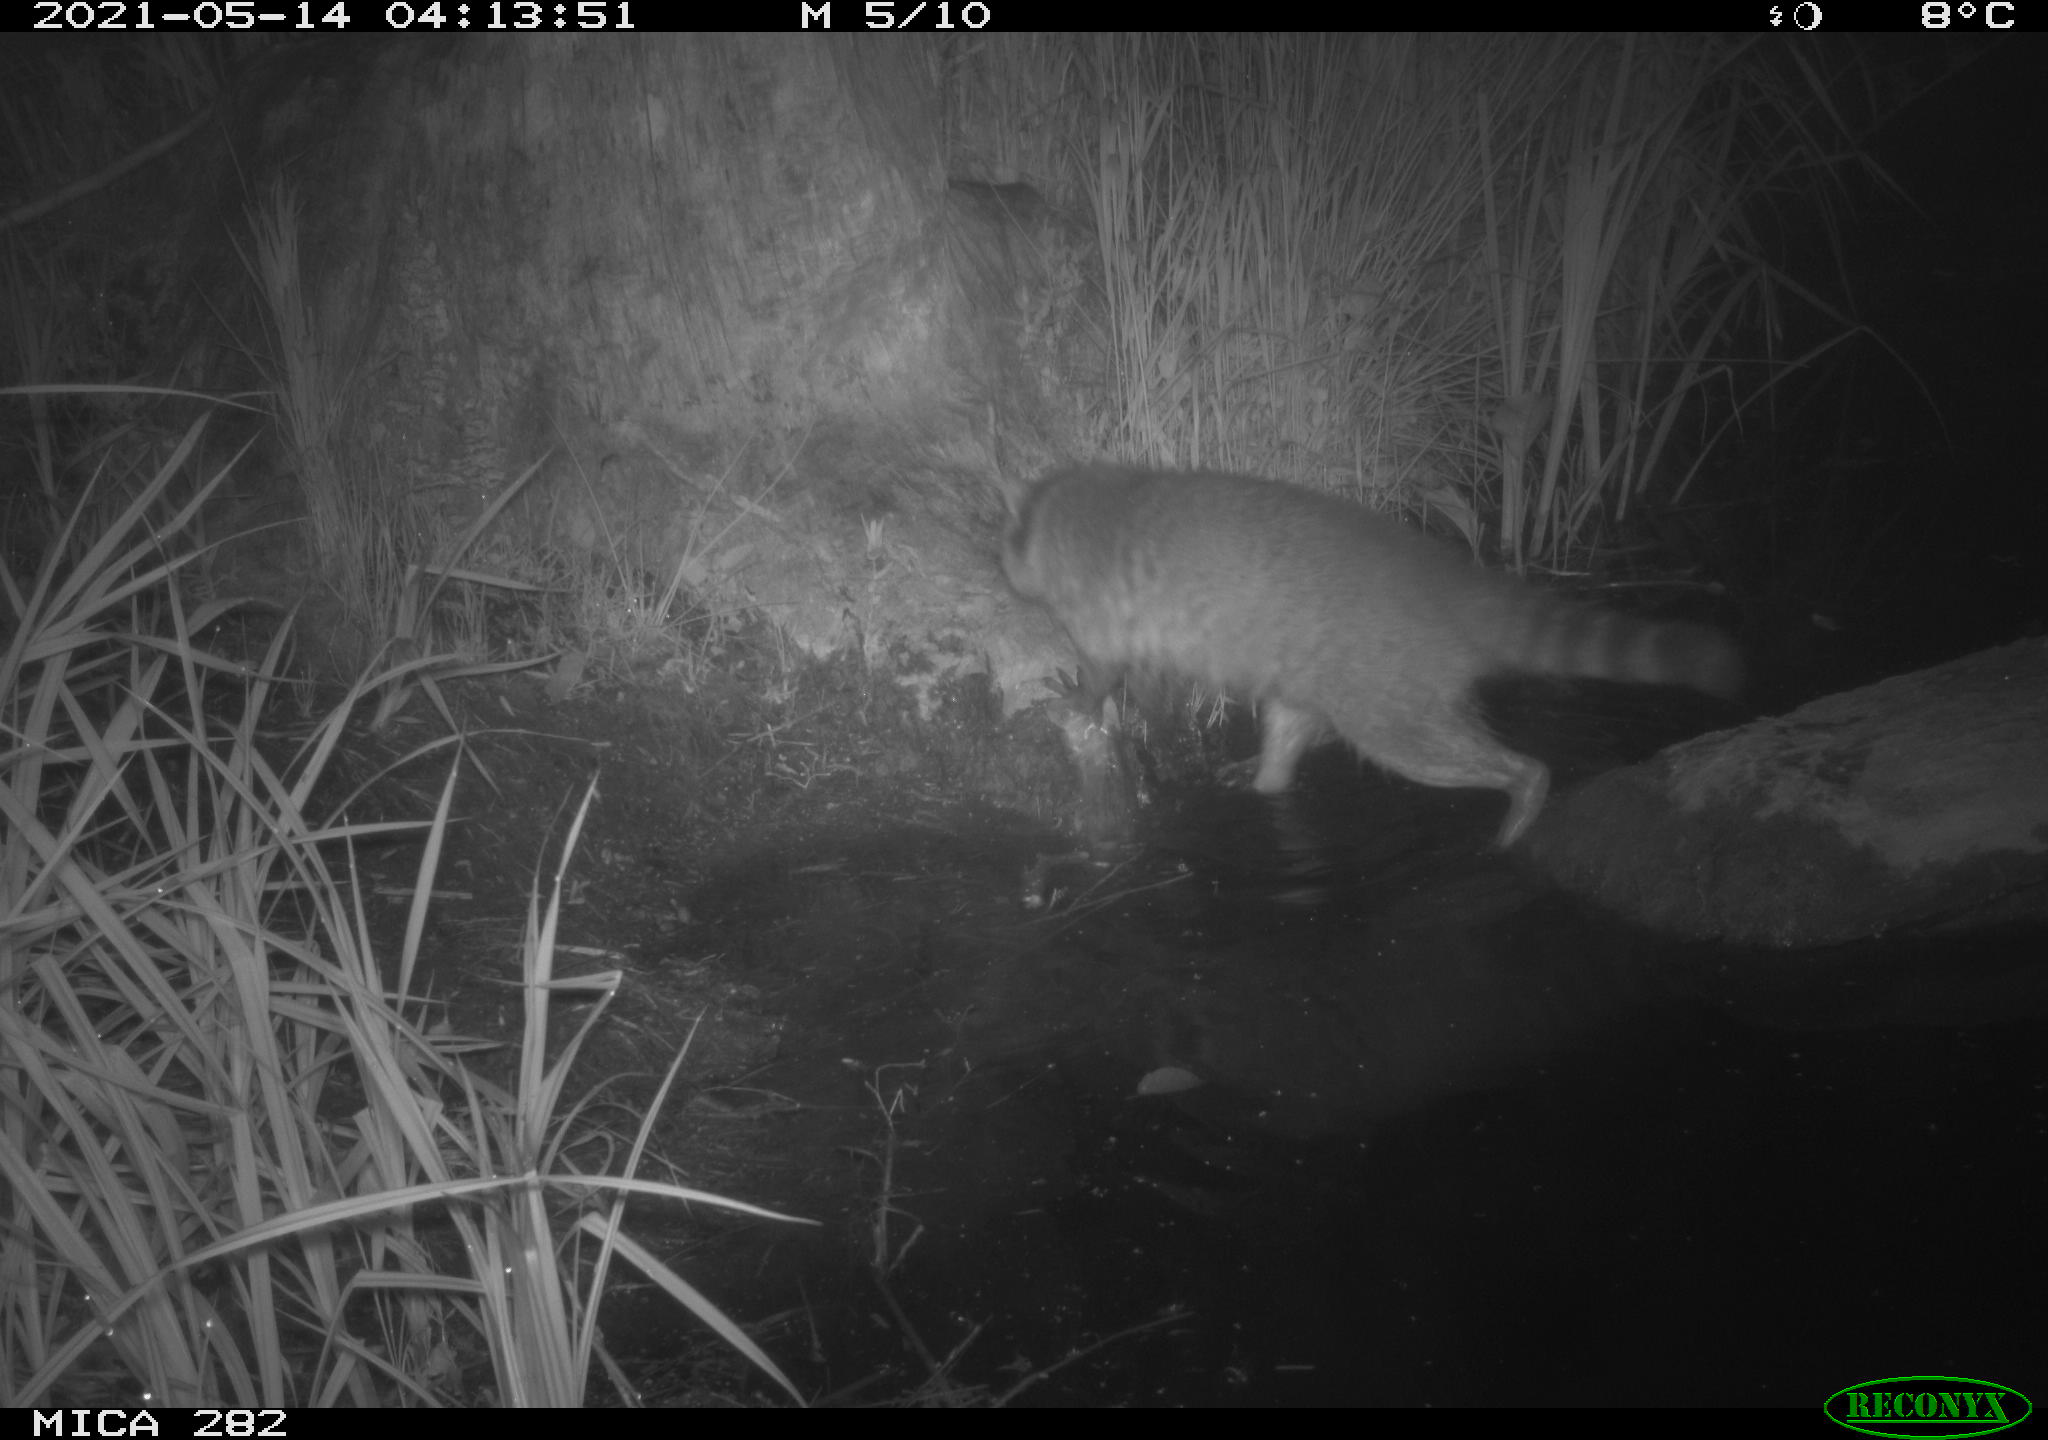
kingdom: Animalia
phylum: Chordata
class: Mammalia
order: Carnivora
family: Procyonidae
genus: Procyon
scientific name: Procyon lotor
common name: Raccoon
